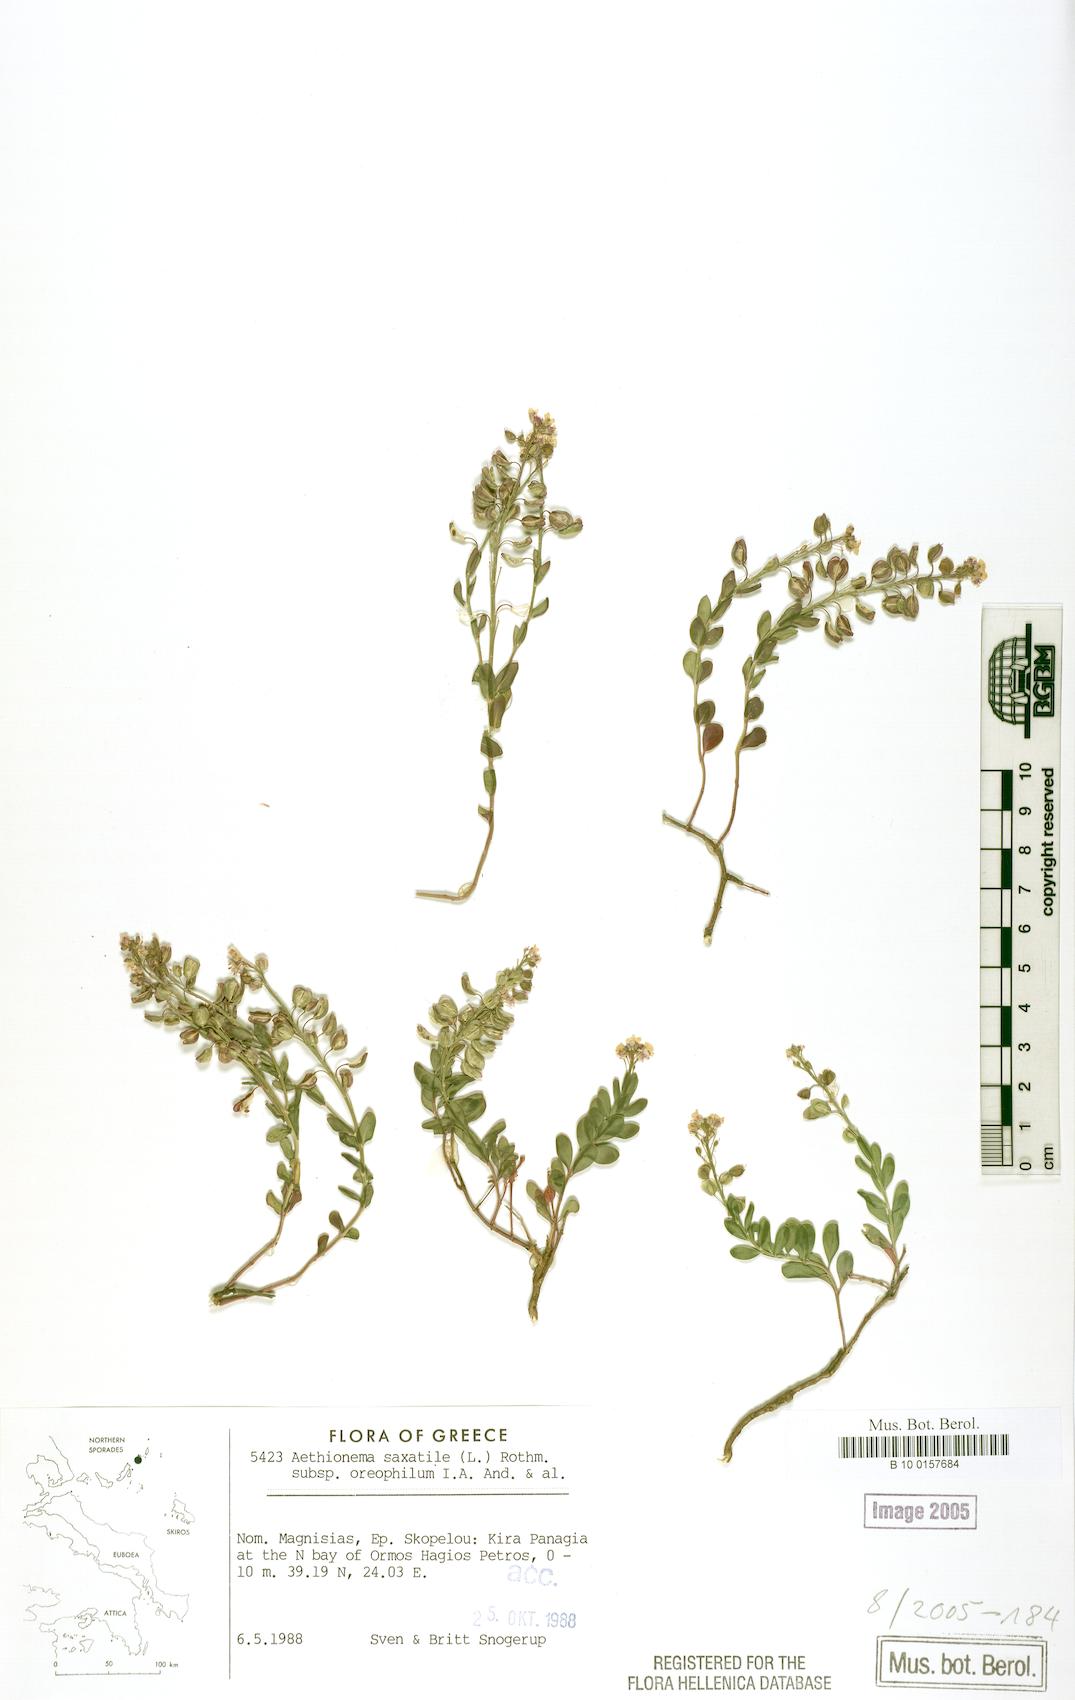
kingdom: Plantae
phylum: Tracheophyta
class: Magnoliopsida
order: Brassicales
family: Brassicaceae
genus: Aethionema
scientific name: Aethionema saxatile
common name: Burnt candytuft
